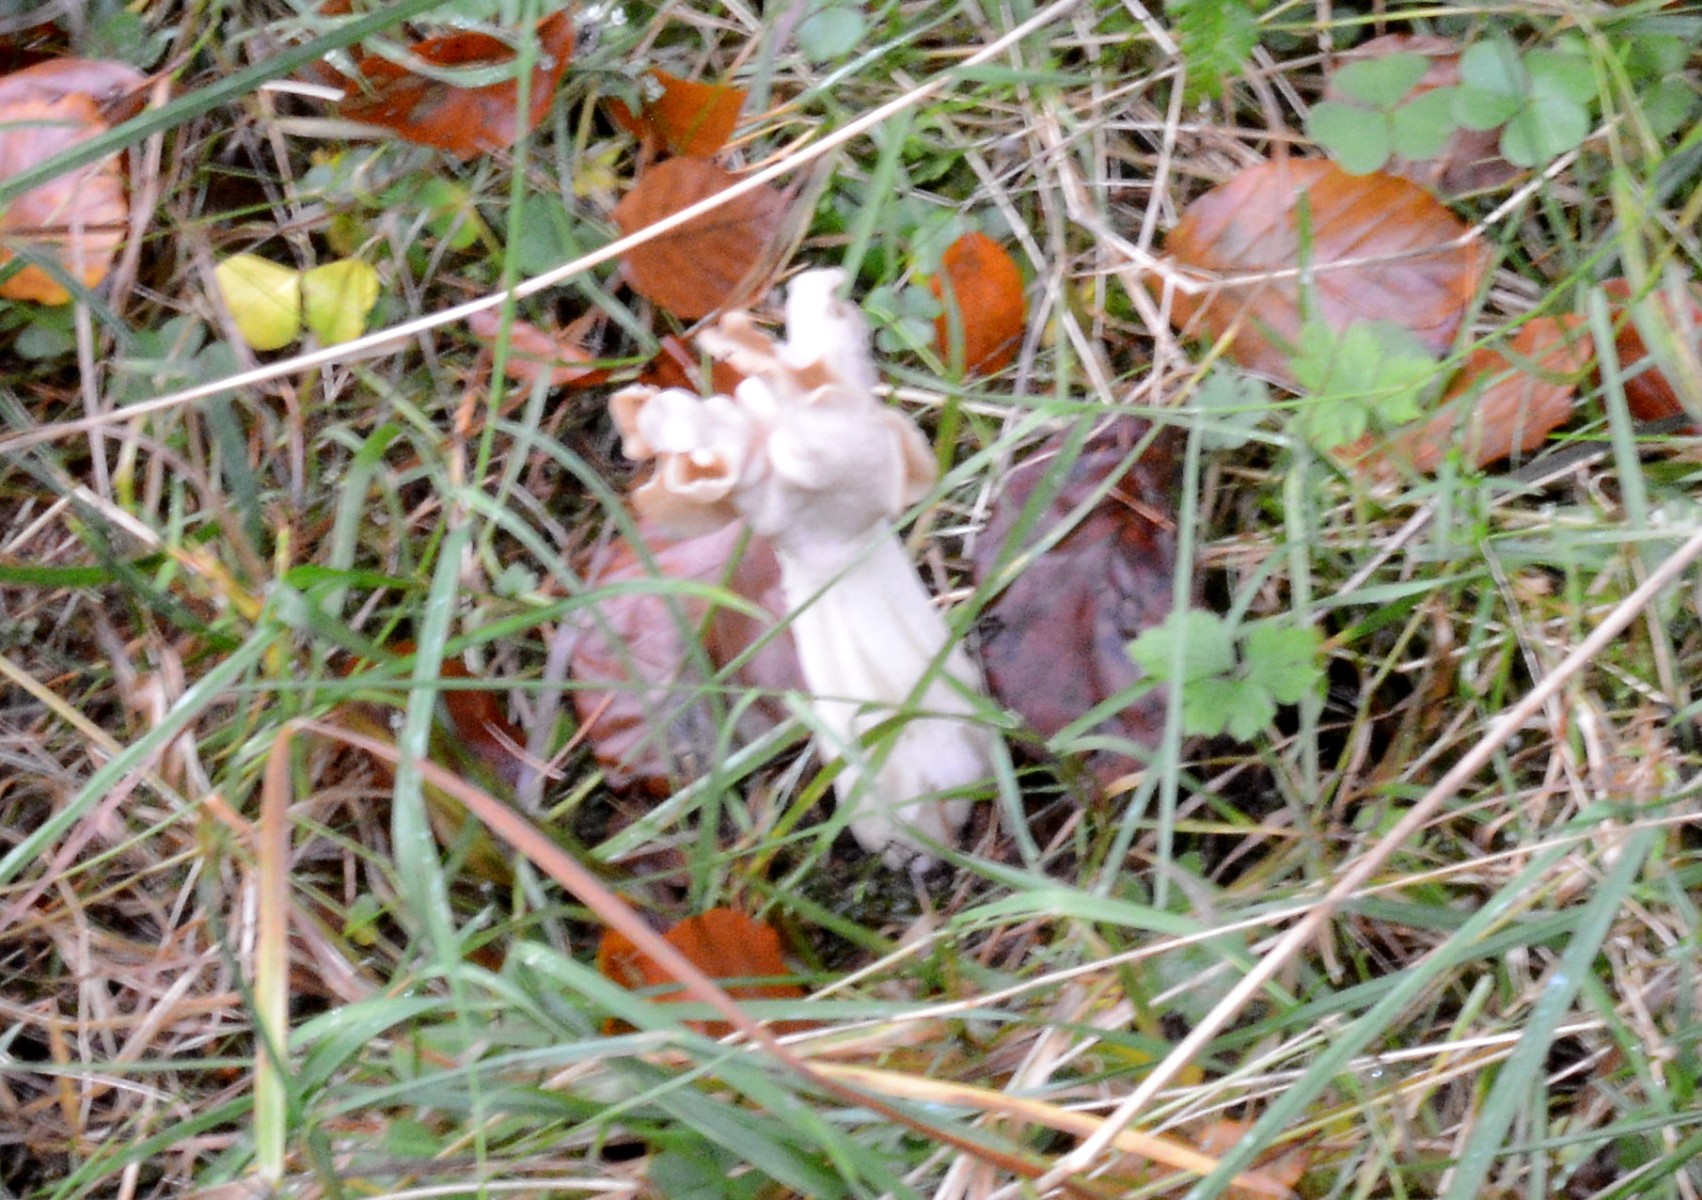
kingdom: Fungi
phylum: Ascomycota
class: Pezizomycetes
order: Pezizales
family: Helvellaceae
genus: Helvella
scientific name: Helvella crispa
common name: kruset foldhat
